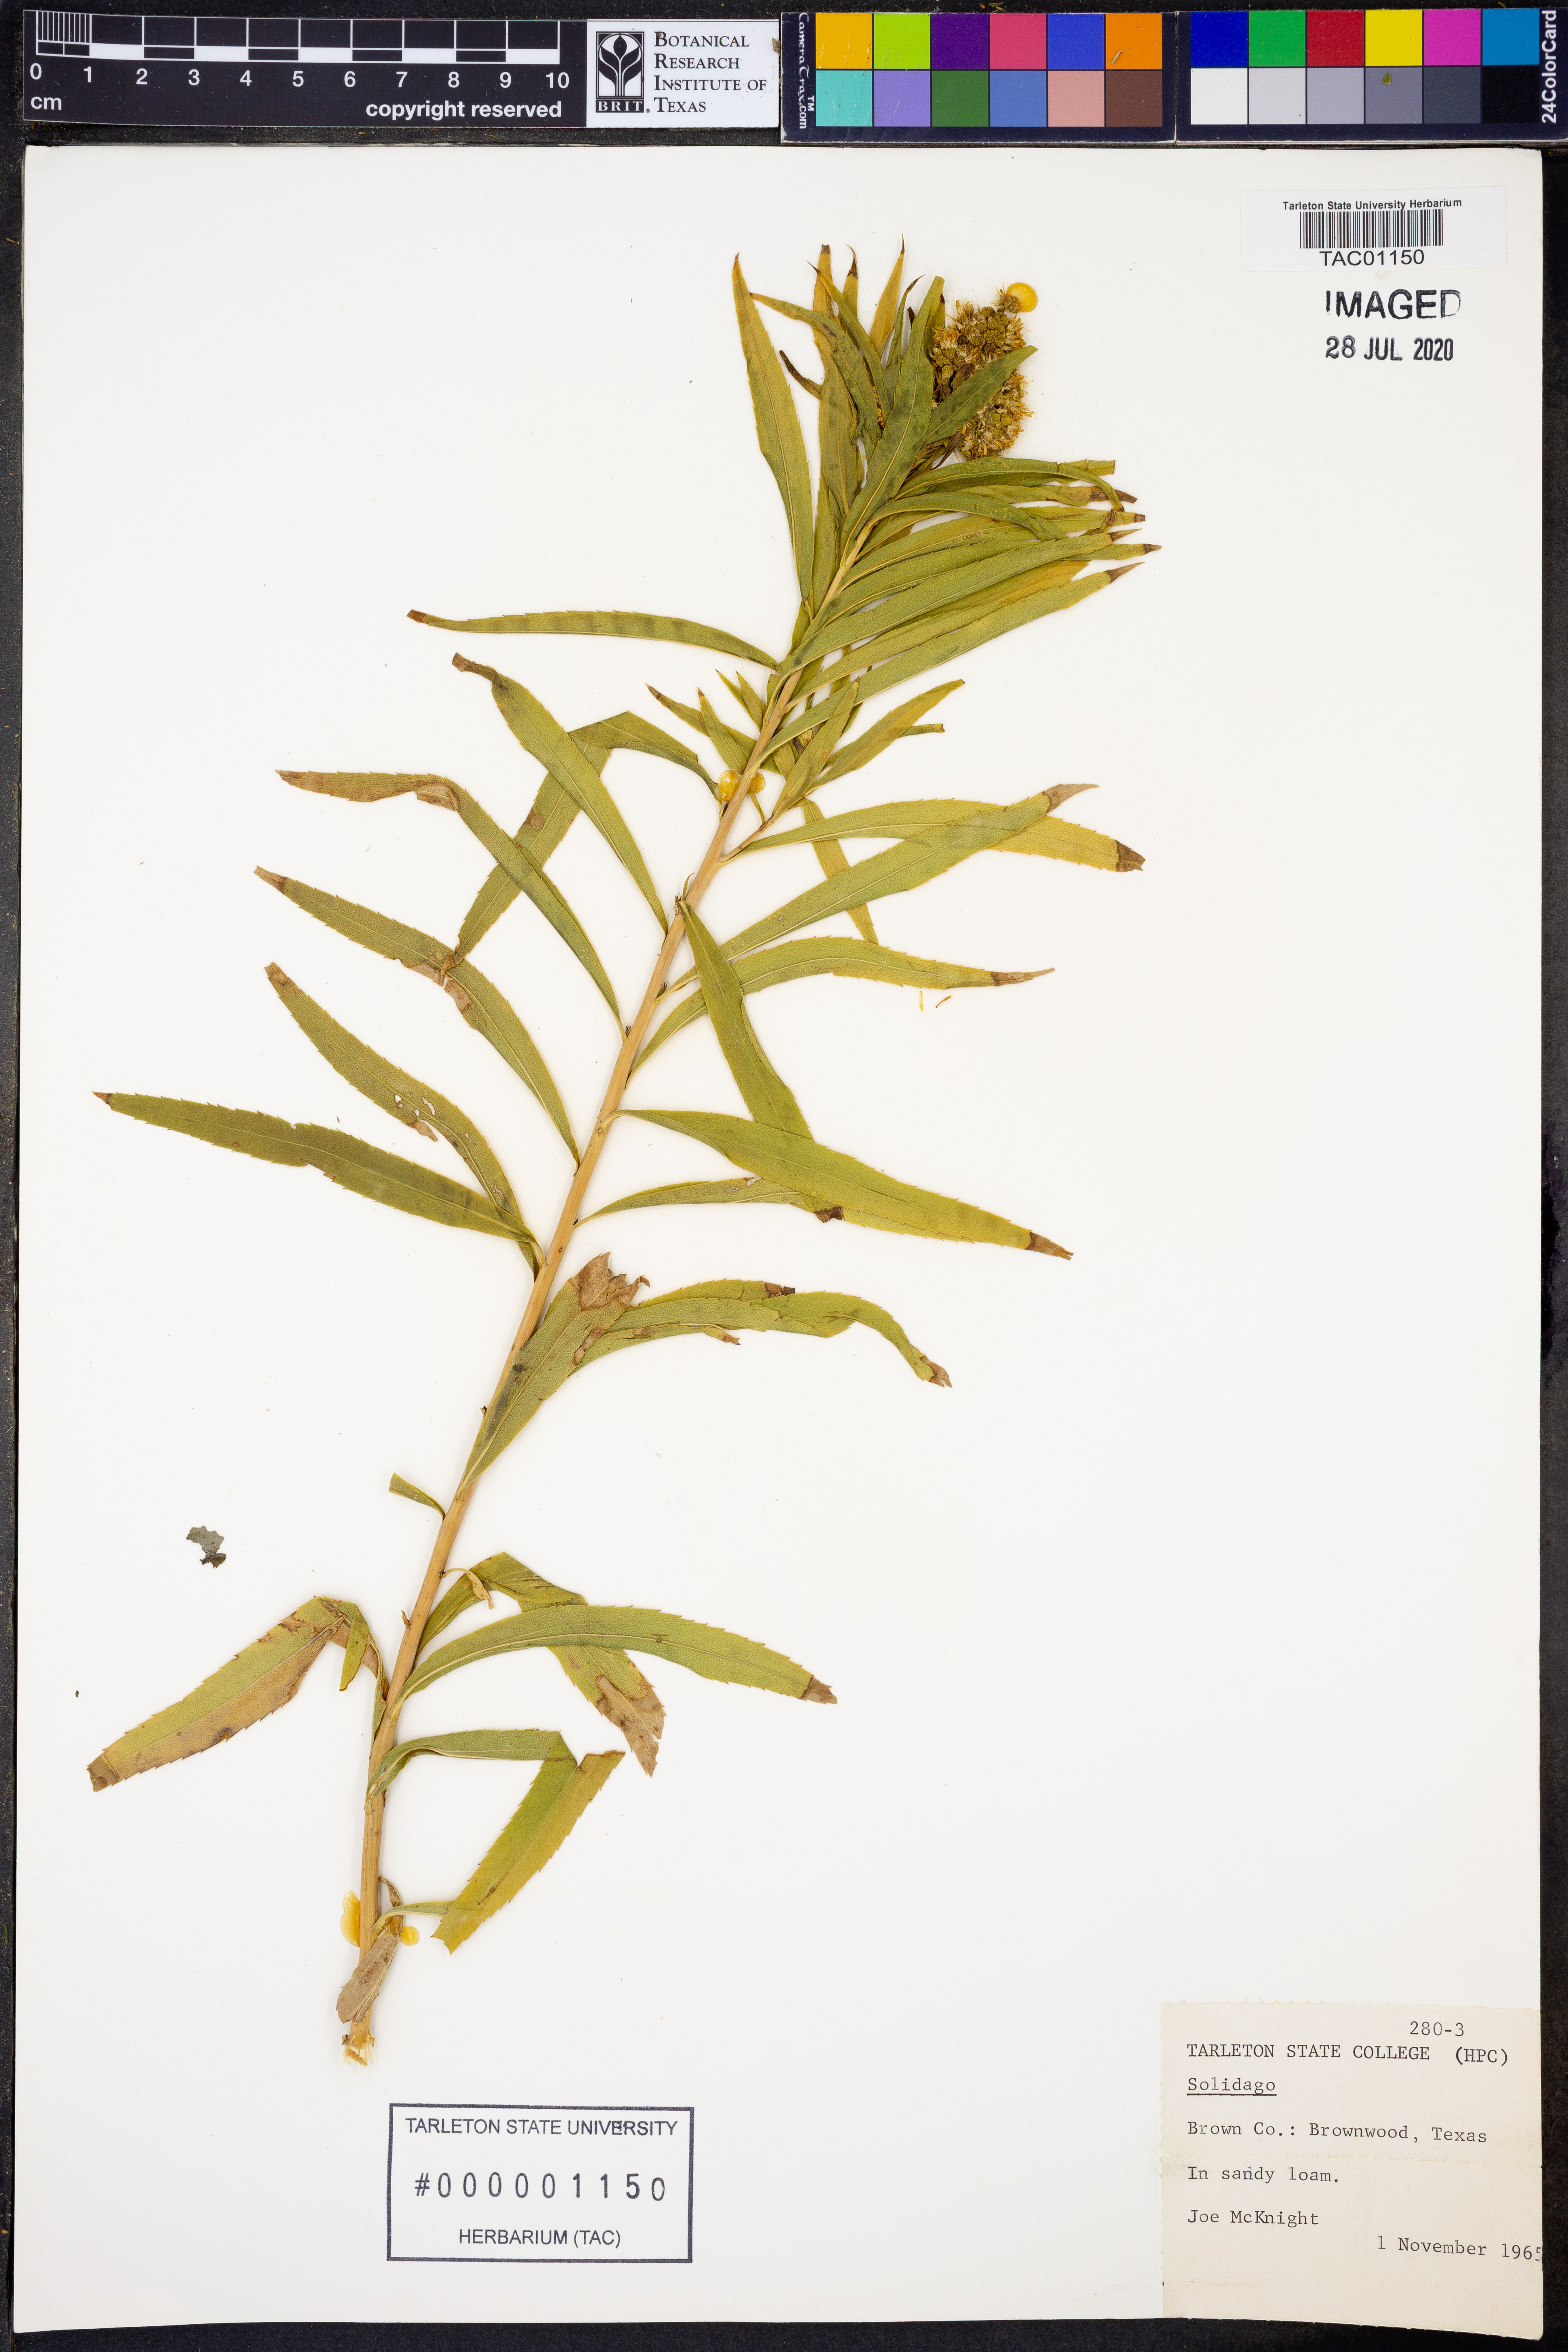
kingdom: Plantae
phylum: Tracheophyta
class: Magnoliopsida
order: Asterales
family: Asteraceae
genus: Solidago
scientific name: Solidago
